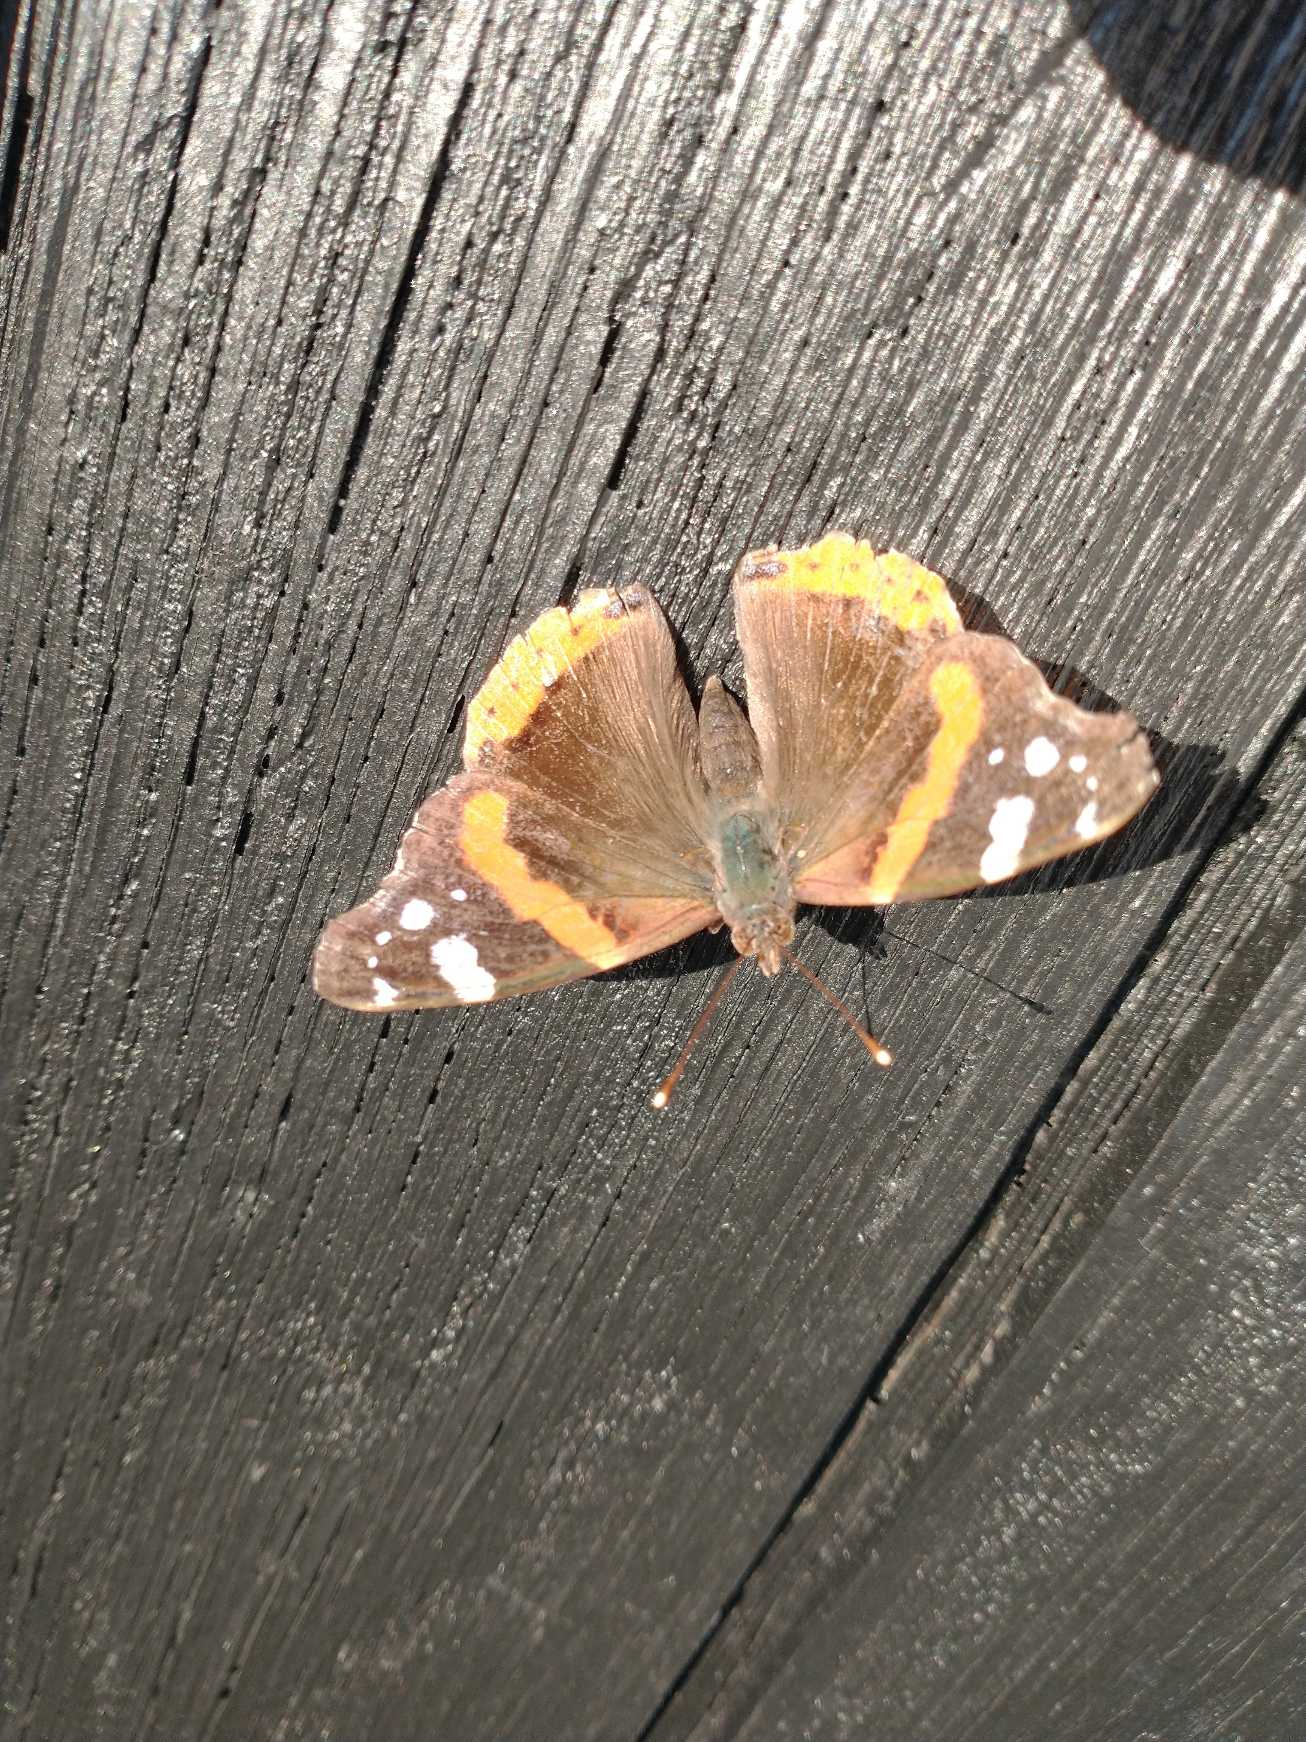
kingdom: Animalia
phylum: Arthropoda
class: Insecta
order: Lepidoptera
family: Nymphalidae
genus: Vanessa
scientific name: Vanessa atalanta
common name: Admiral
